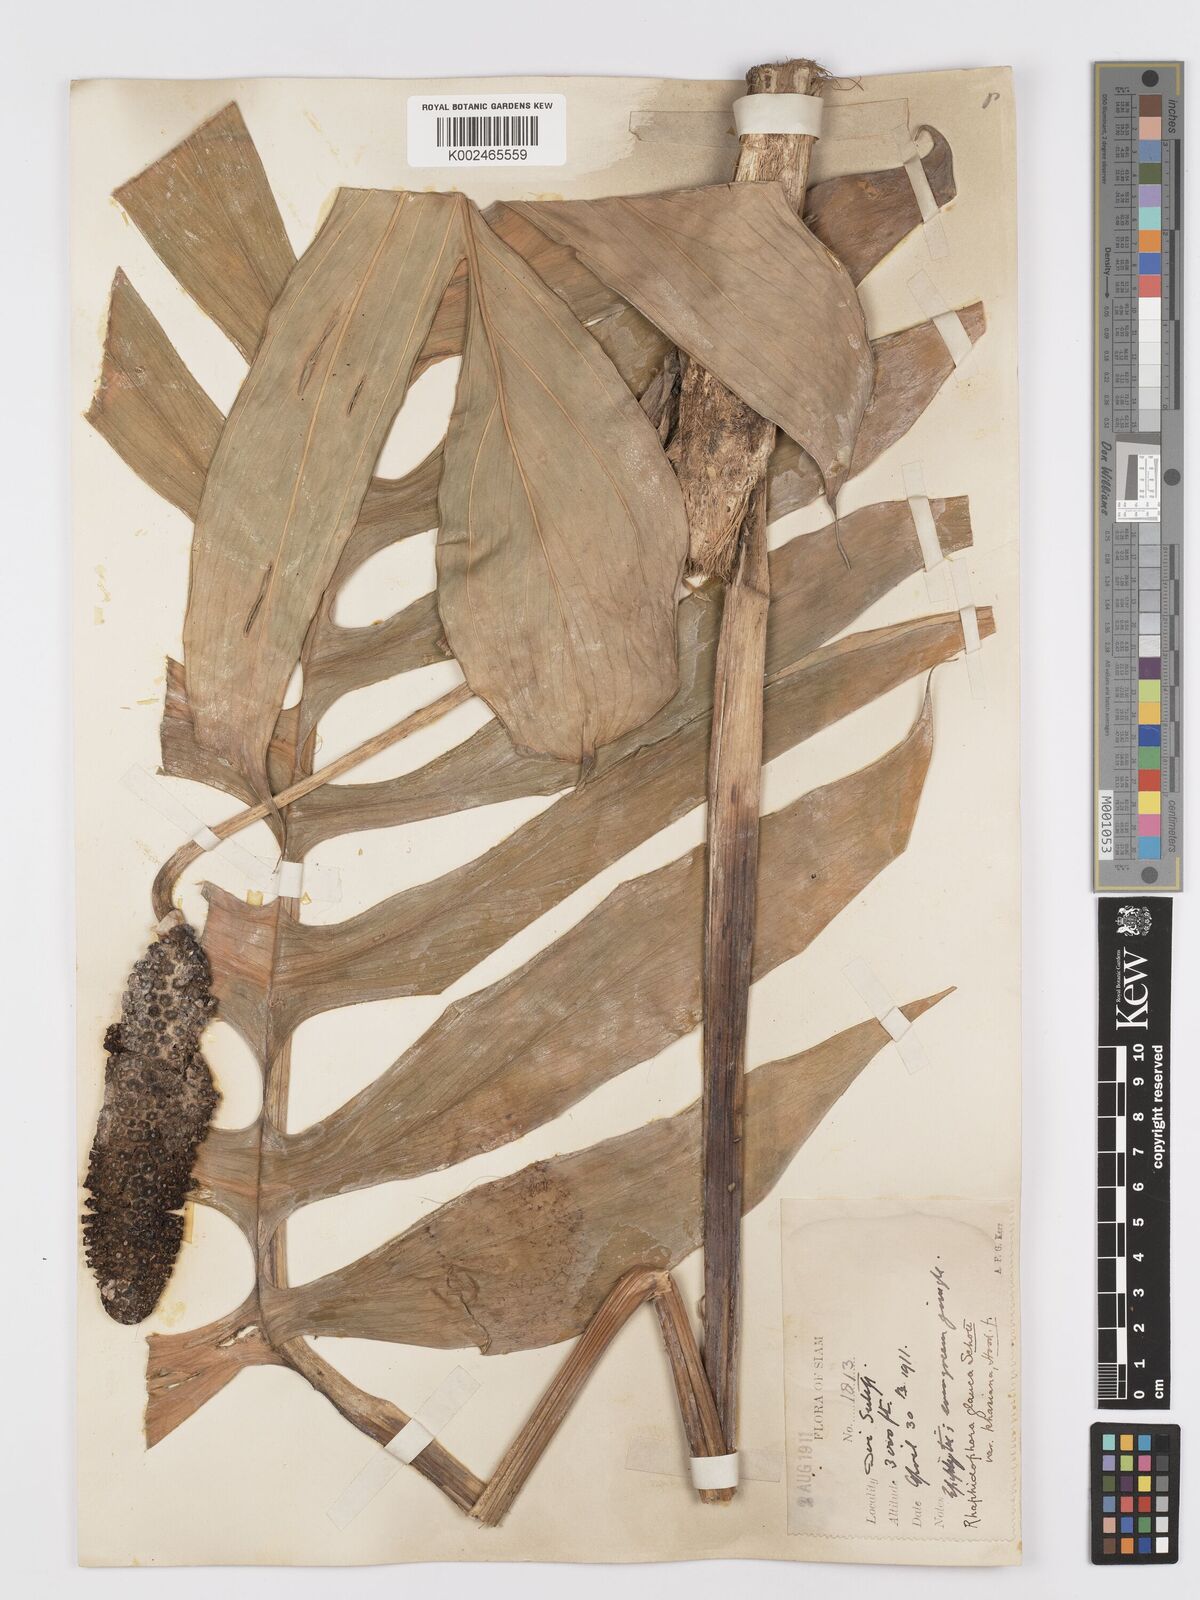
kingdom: Plantae
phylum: Tracheophyta
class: Liliopsida
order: Alismatales
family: Araceae
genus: Rhaphidophora
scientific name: Rhaphidophora glauca
